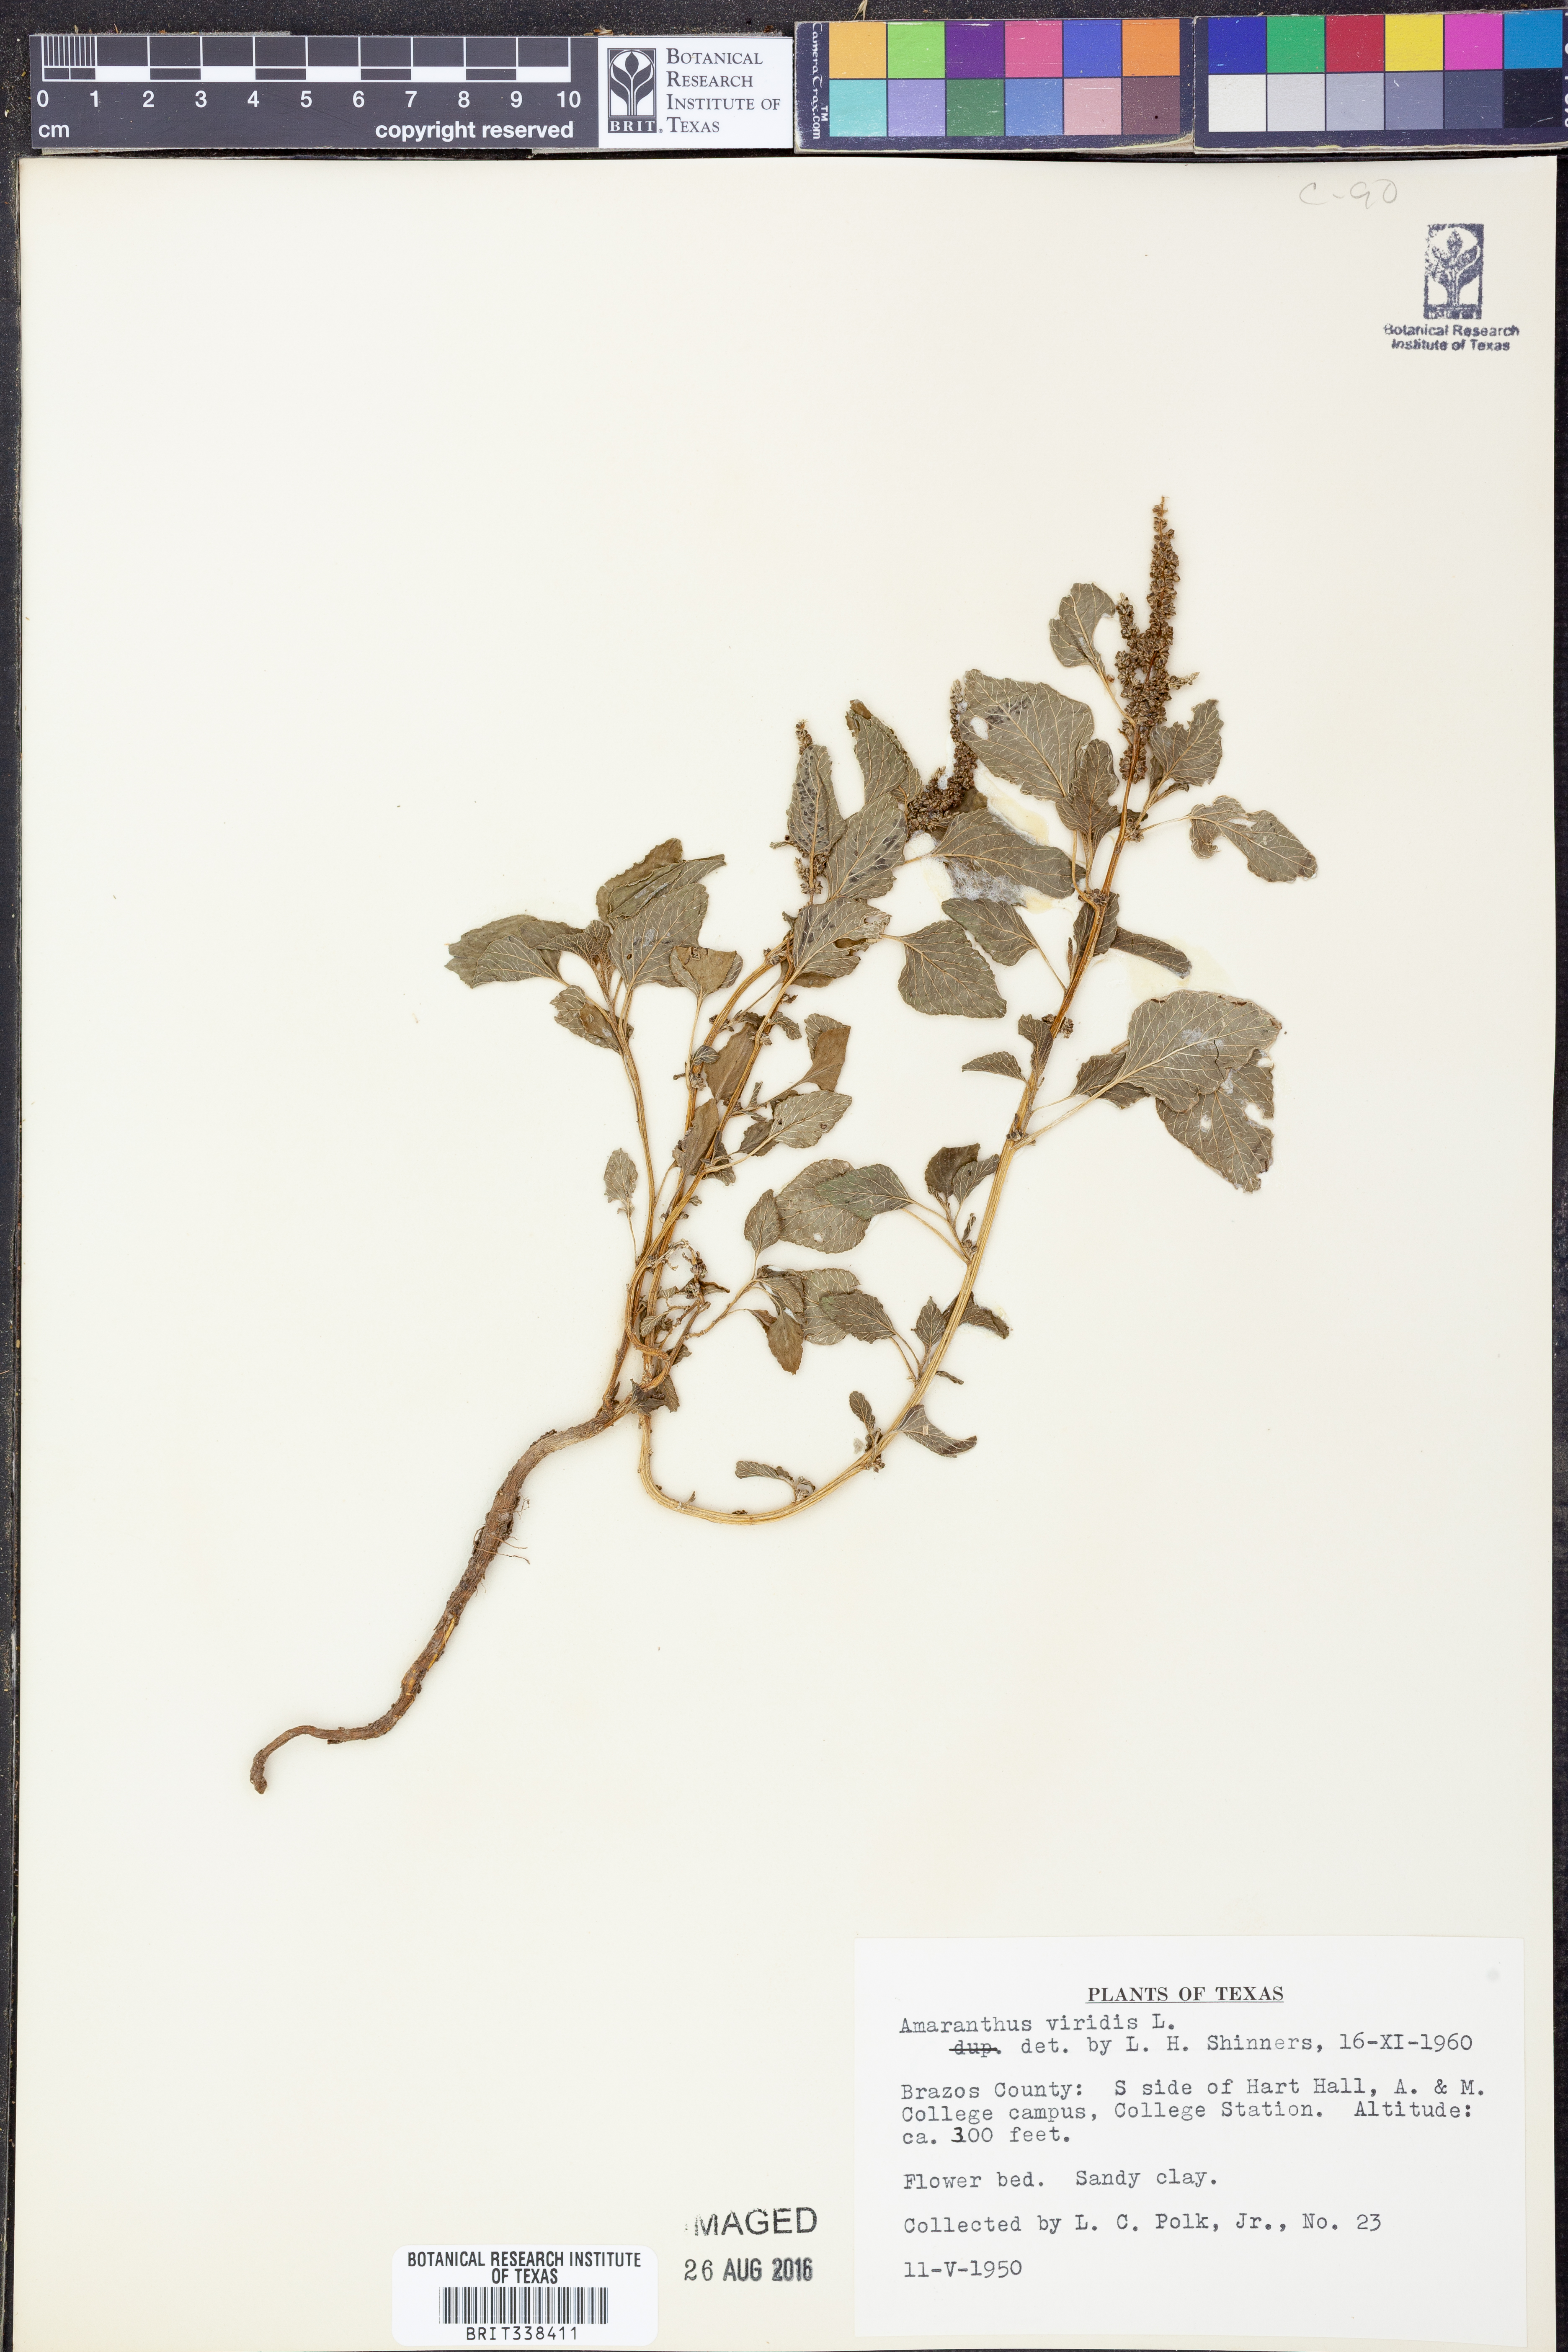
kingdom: Plantae
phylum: Tracheophyta
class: Magnoliopsida
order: Caryophyllales
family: Amaranthaceae
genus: Amaranthus
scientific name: Amaranthus viridis
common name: Slender amaranth
